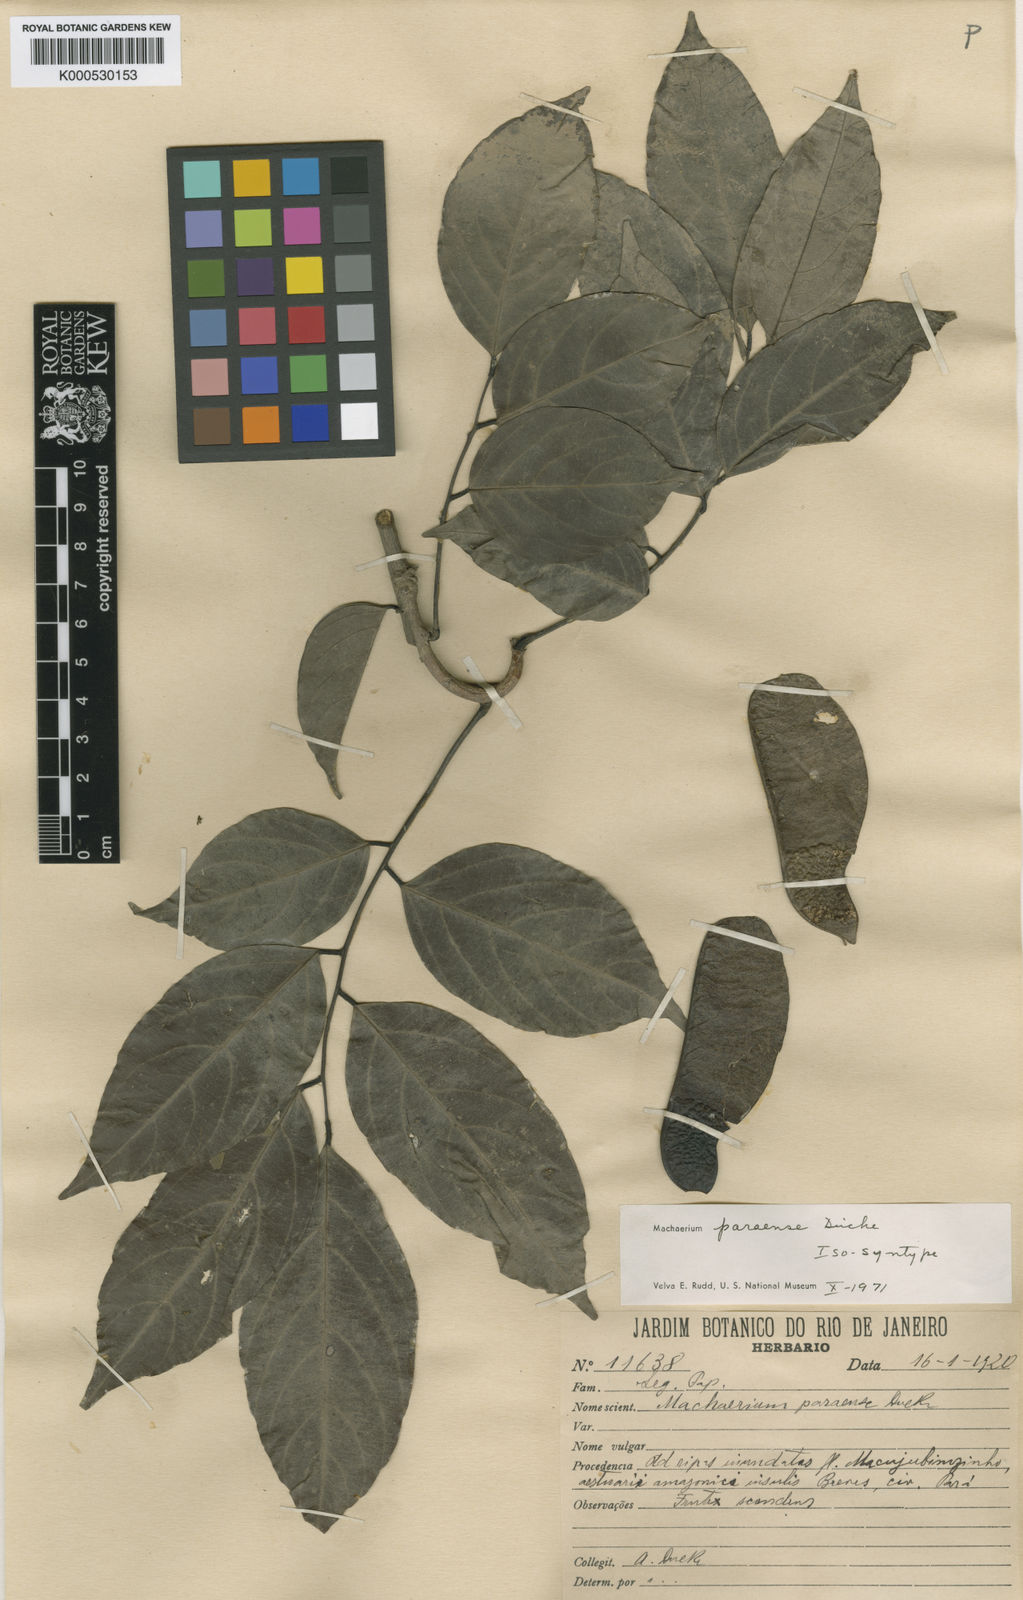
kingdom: Plantae
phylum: Tracheophyta
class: Magnoliopsida
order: Fabales
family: Fabaceae
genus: Machaerium
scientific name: Machaerium paraense
